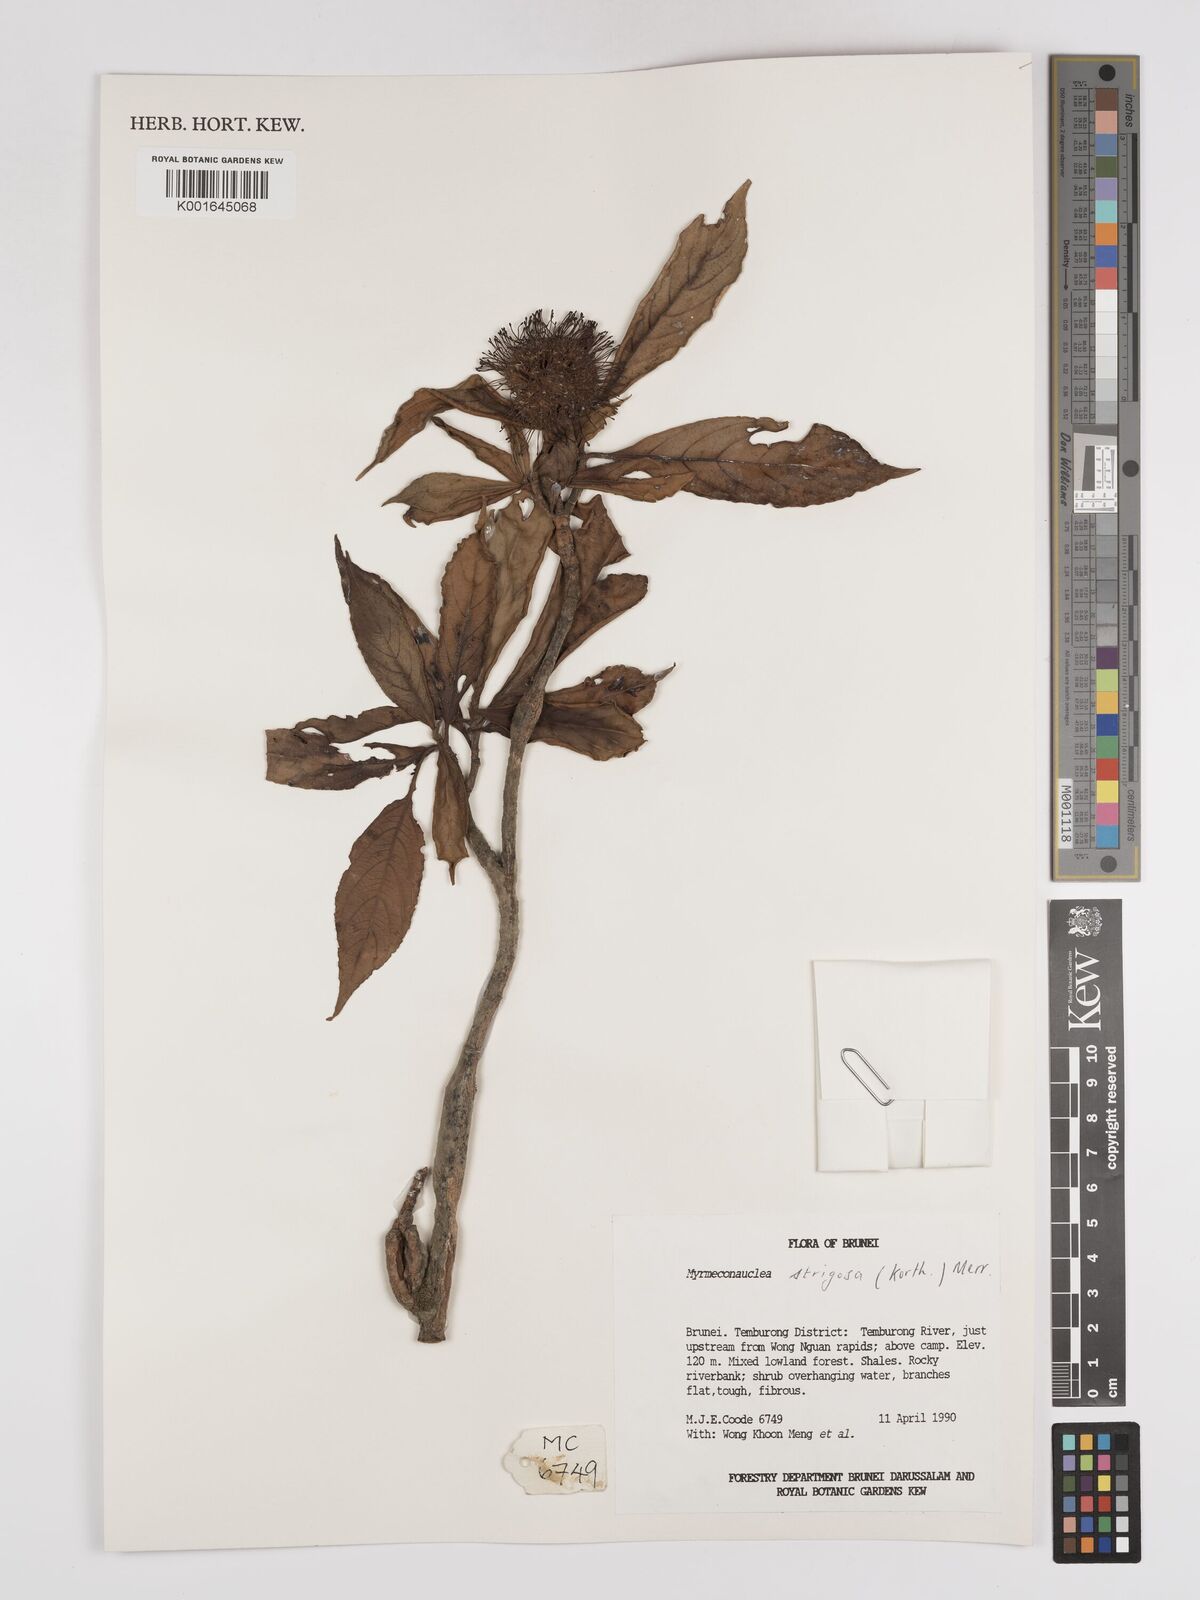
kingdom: Plantae
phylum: Tracheophyta
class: Magnoliopsida
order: Gentianales
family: Rubiaceae
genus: Myrmeconauclea
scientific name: Myrmeconauclea strigosa
